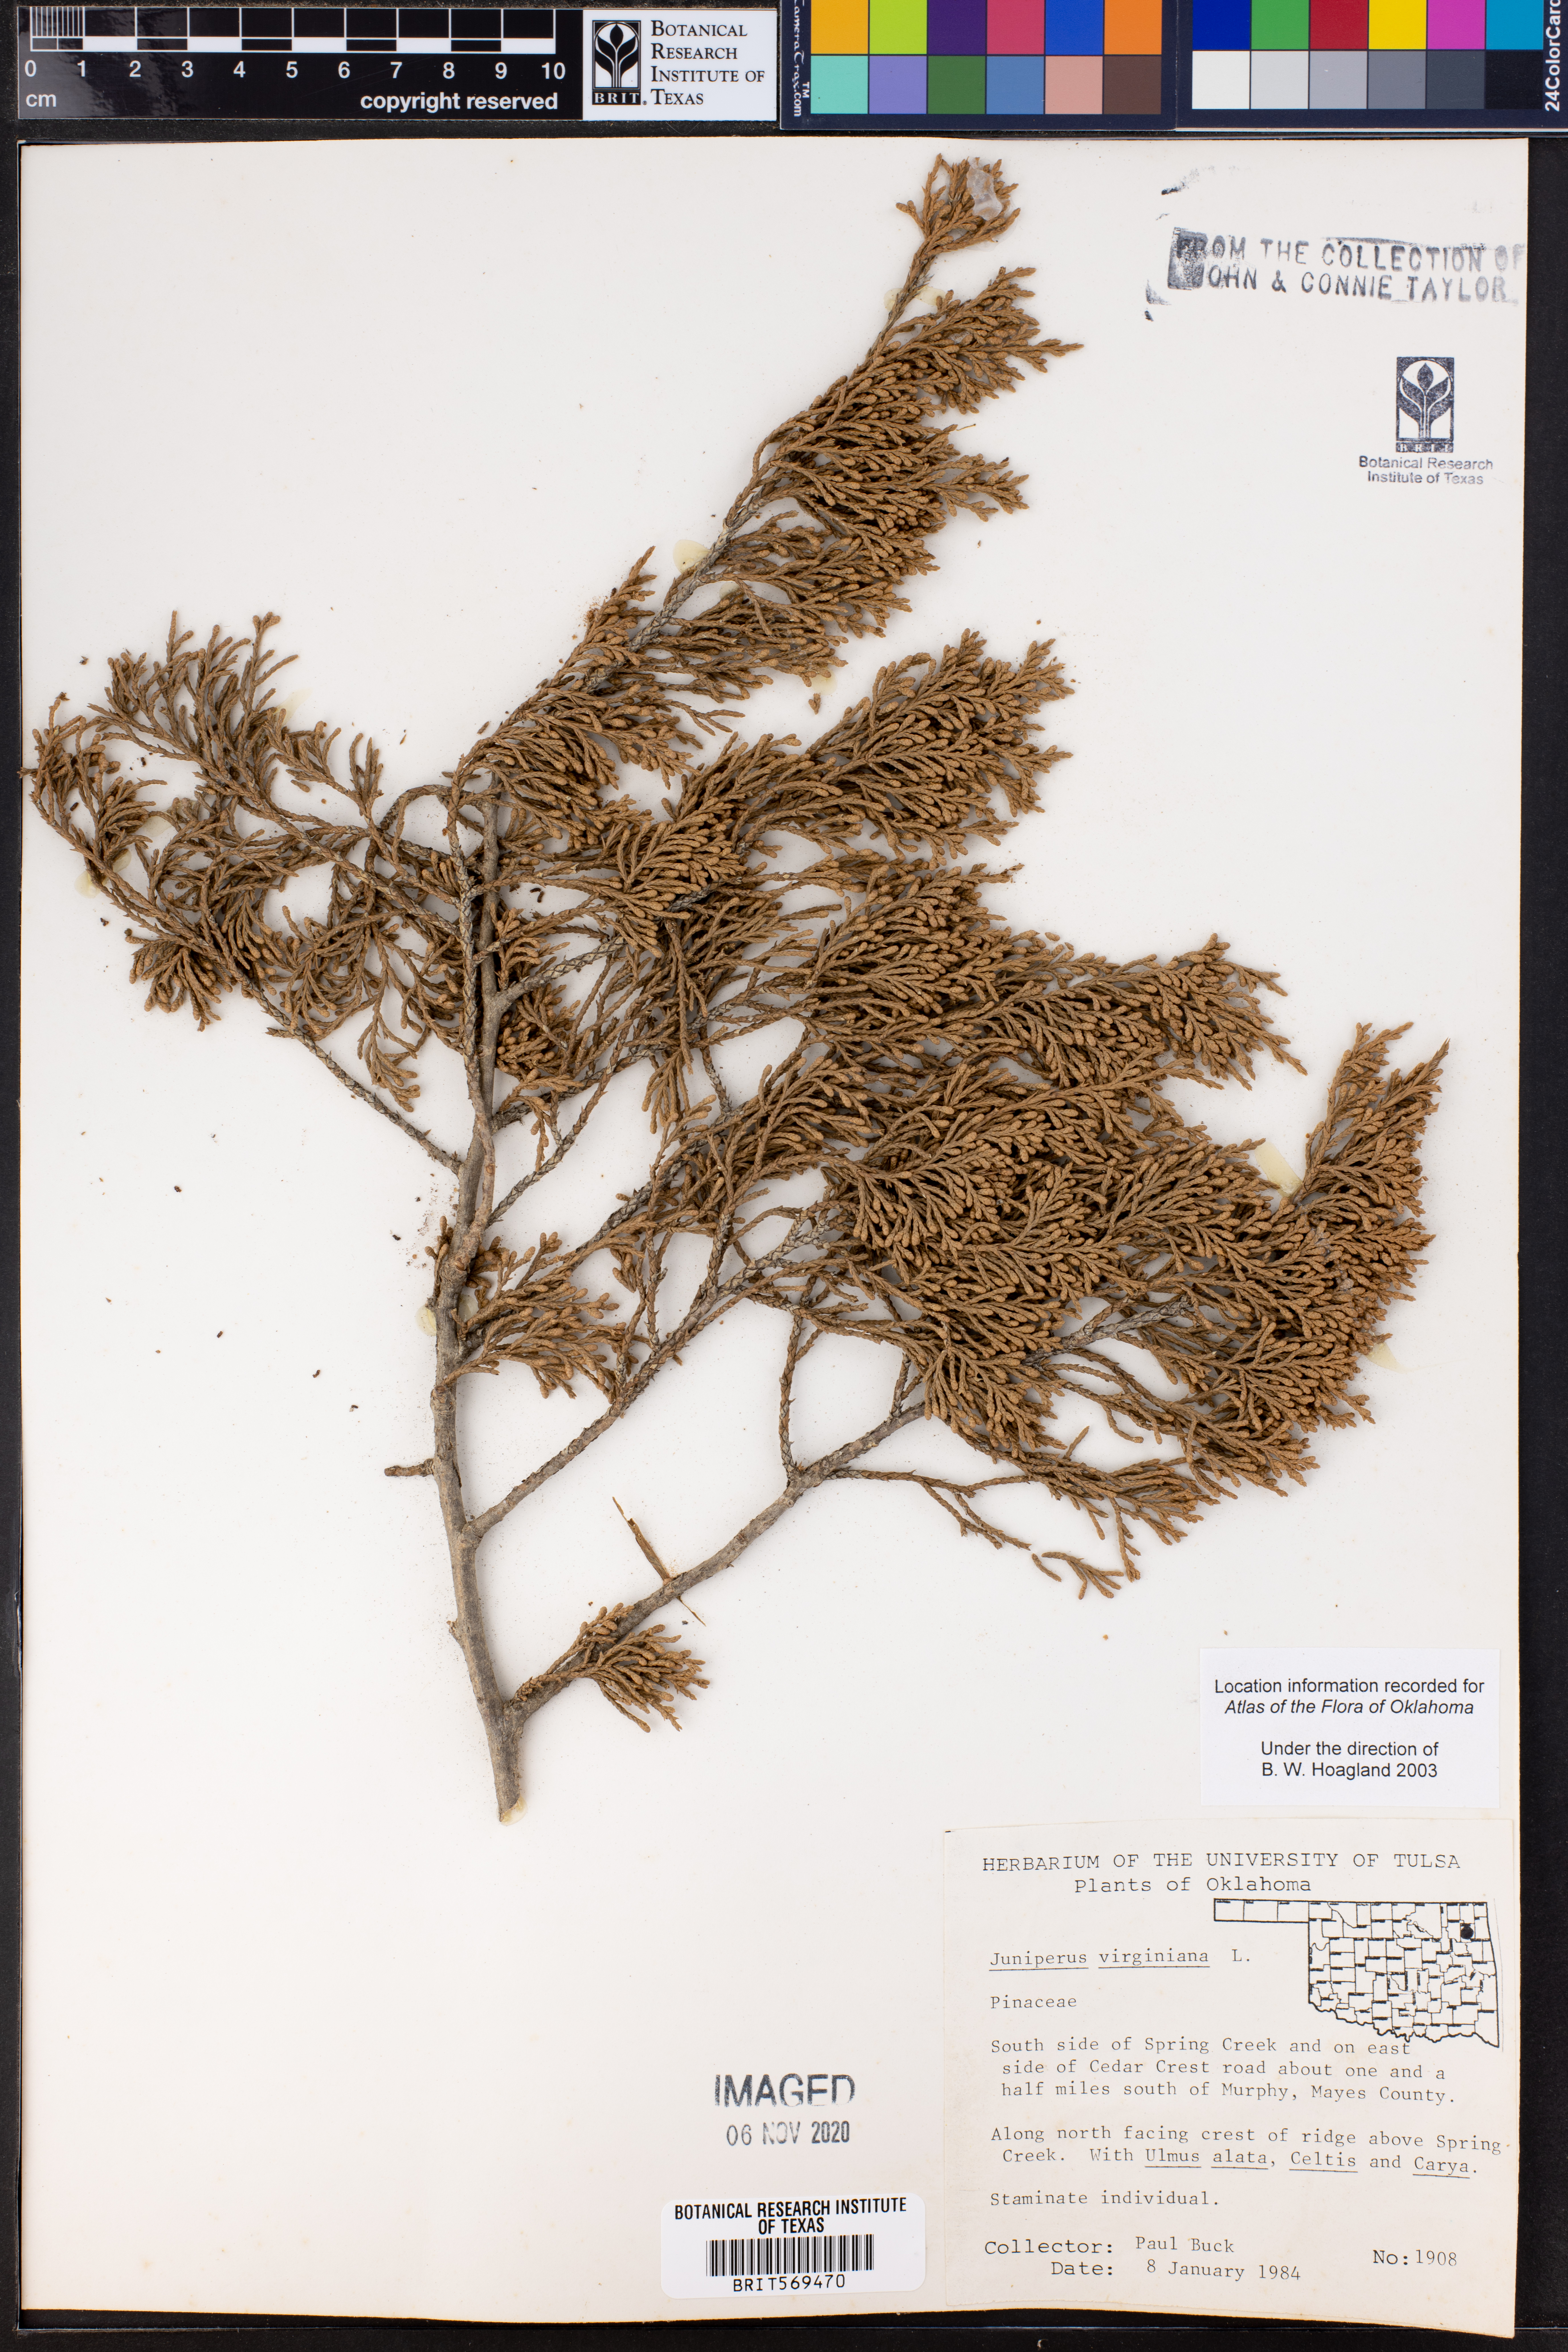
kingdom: Plantae
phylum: Tracheophyta
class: Pinopsida
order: Pinales
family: Cupressaceae
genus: Juniperus
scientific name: Juniperus virginiana
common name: Red juniper
